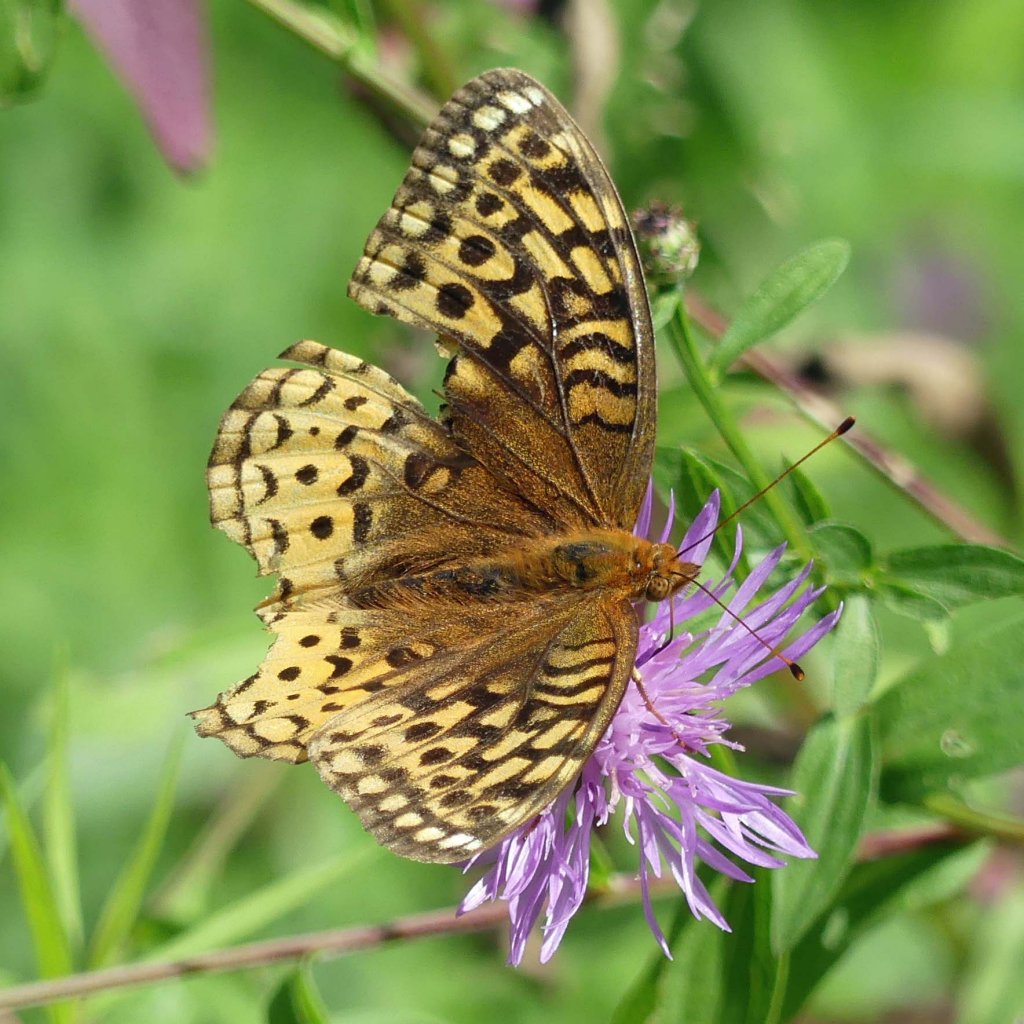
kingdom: Animalia
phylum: Arthropoda
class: Insecta
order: Lepidoptera
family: Nymphalidae
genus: Speyeria
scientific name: Speyeria cybele
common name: Great Spangled Fritillary
